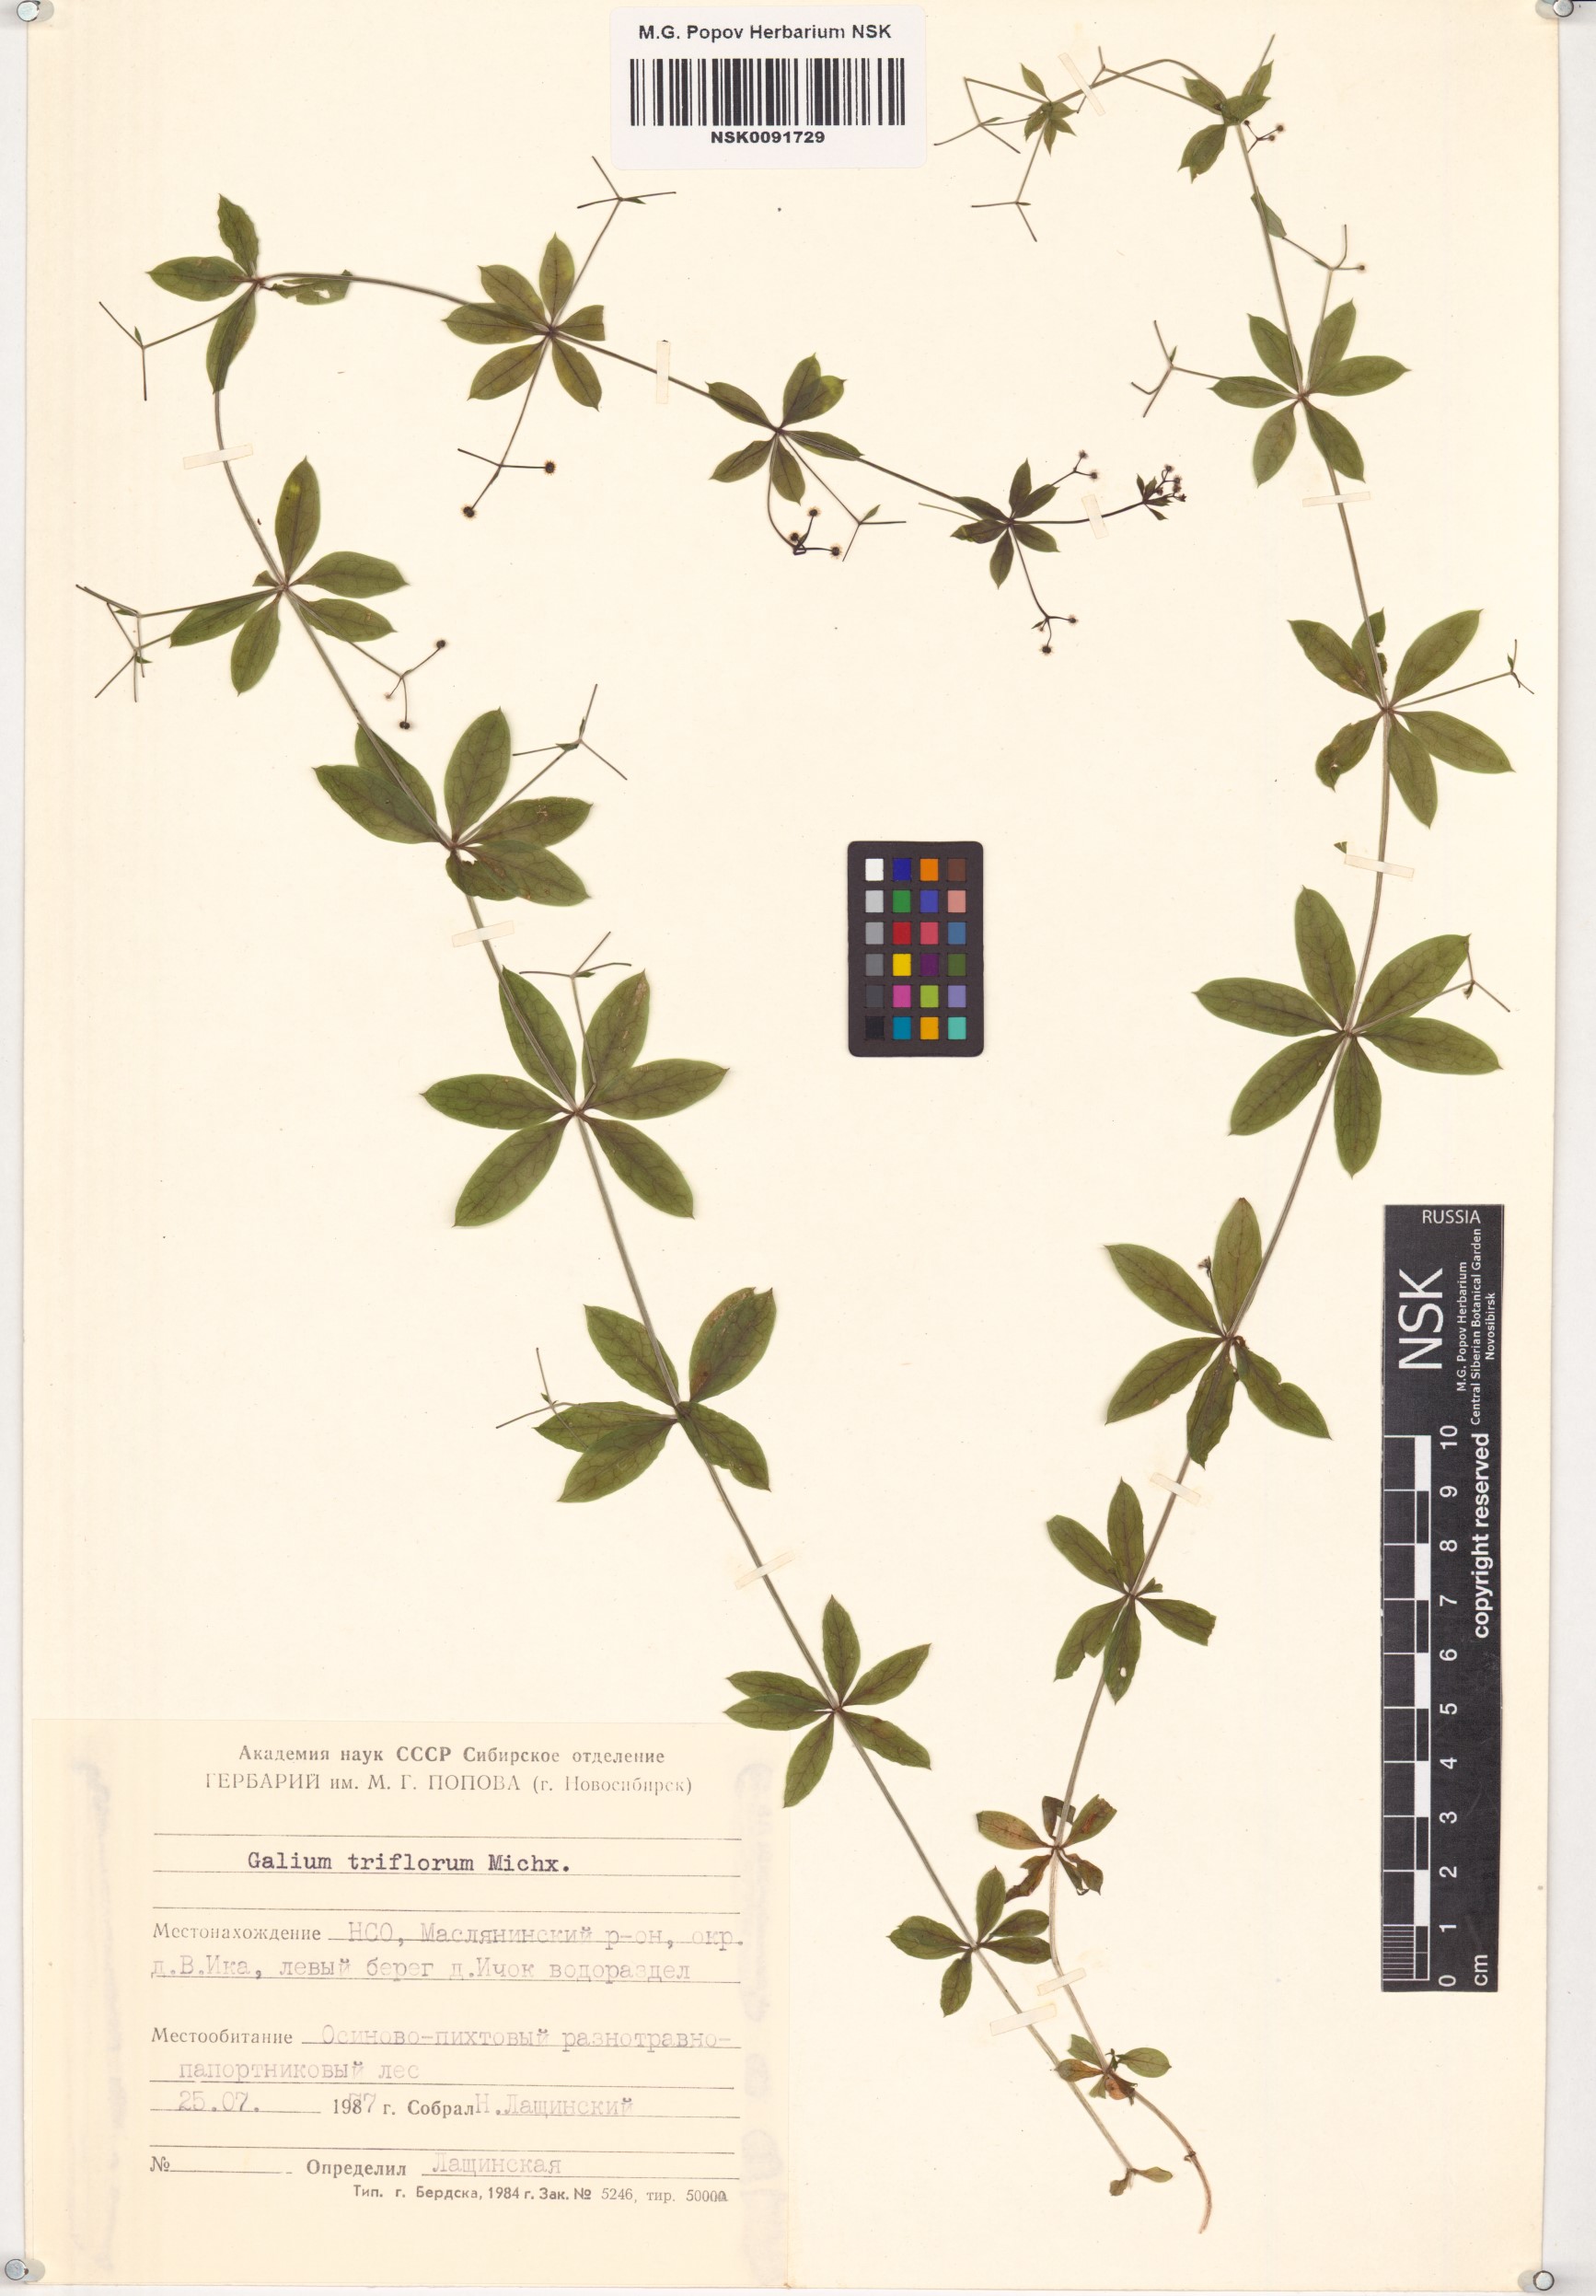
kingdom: Plantae
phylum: Tracheophyta
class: Magnoliopsida
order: Gentianales
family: Rubiaceae
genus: Galium
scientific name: Galium triflorum
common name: Fragrant bedstraw
